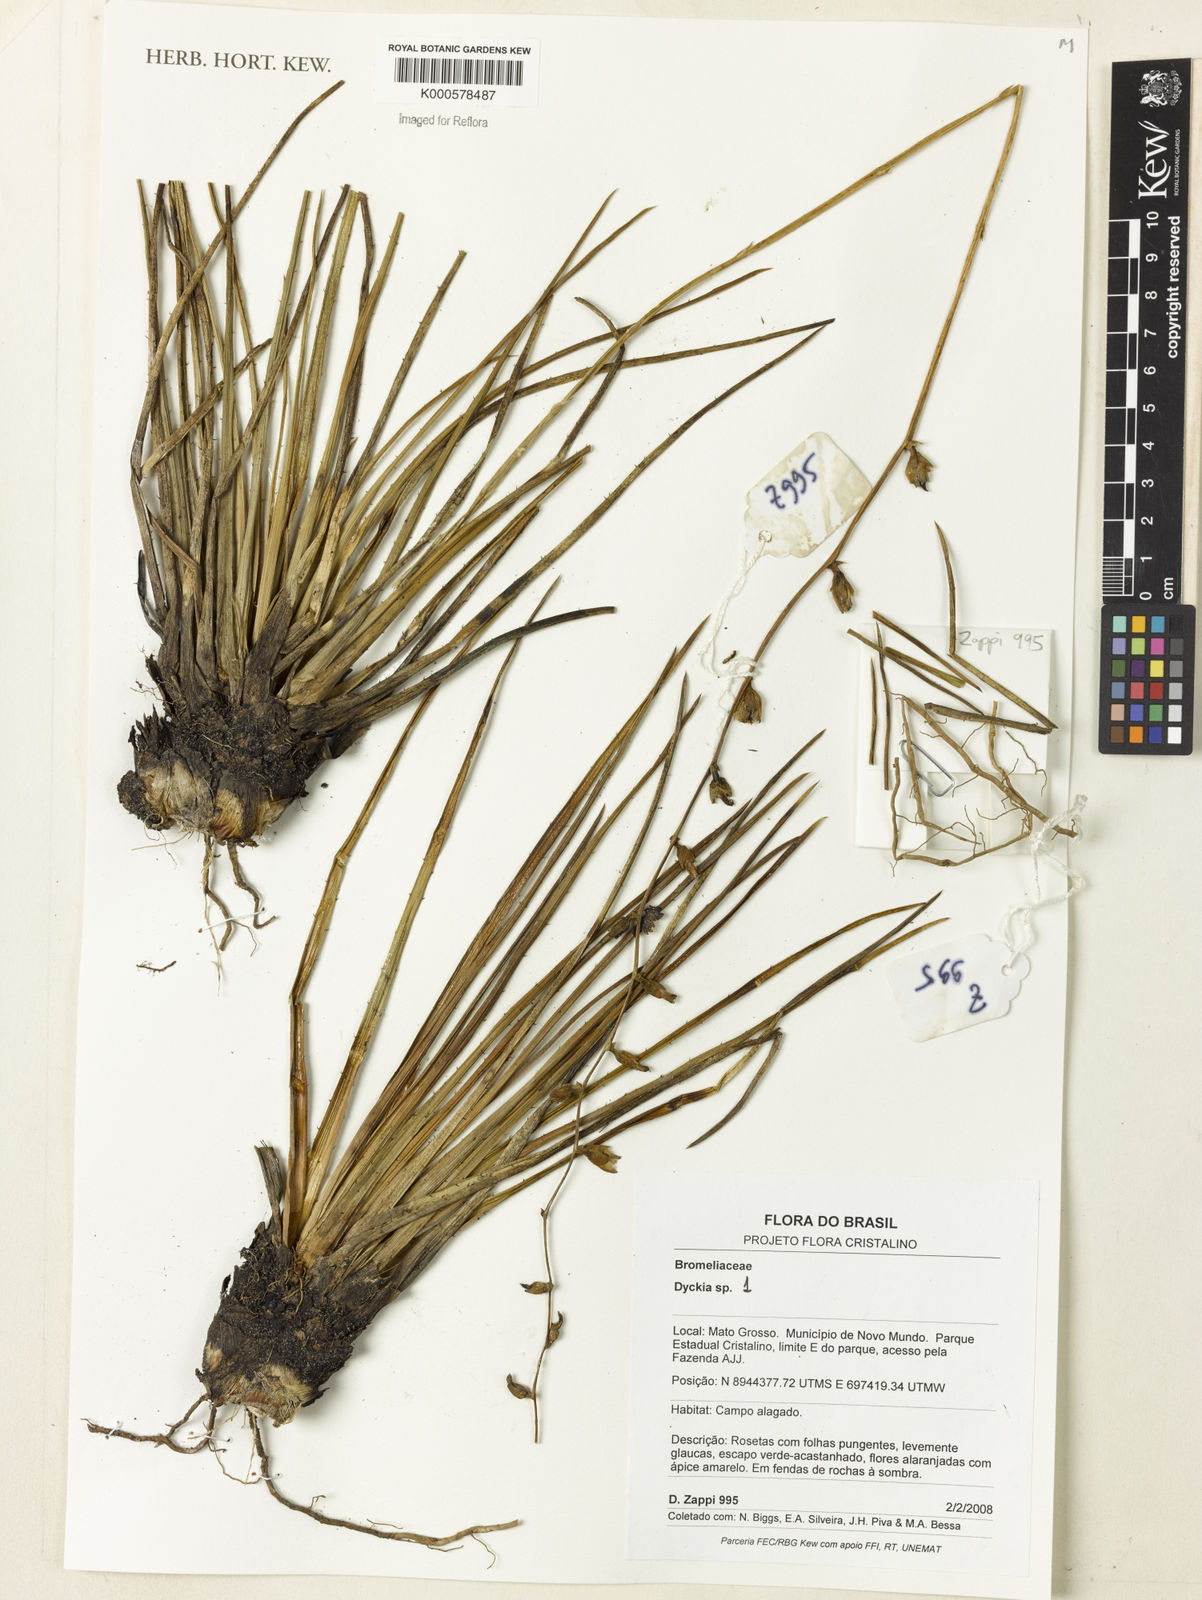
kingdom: Plantae
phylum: Tracheophyta
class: Liliopsida
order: Poales
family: Bromeliaceae
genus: Dyckia
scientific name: Dyckia
